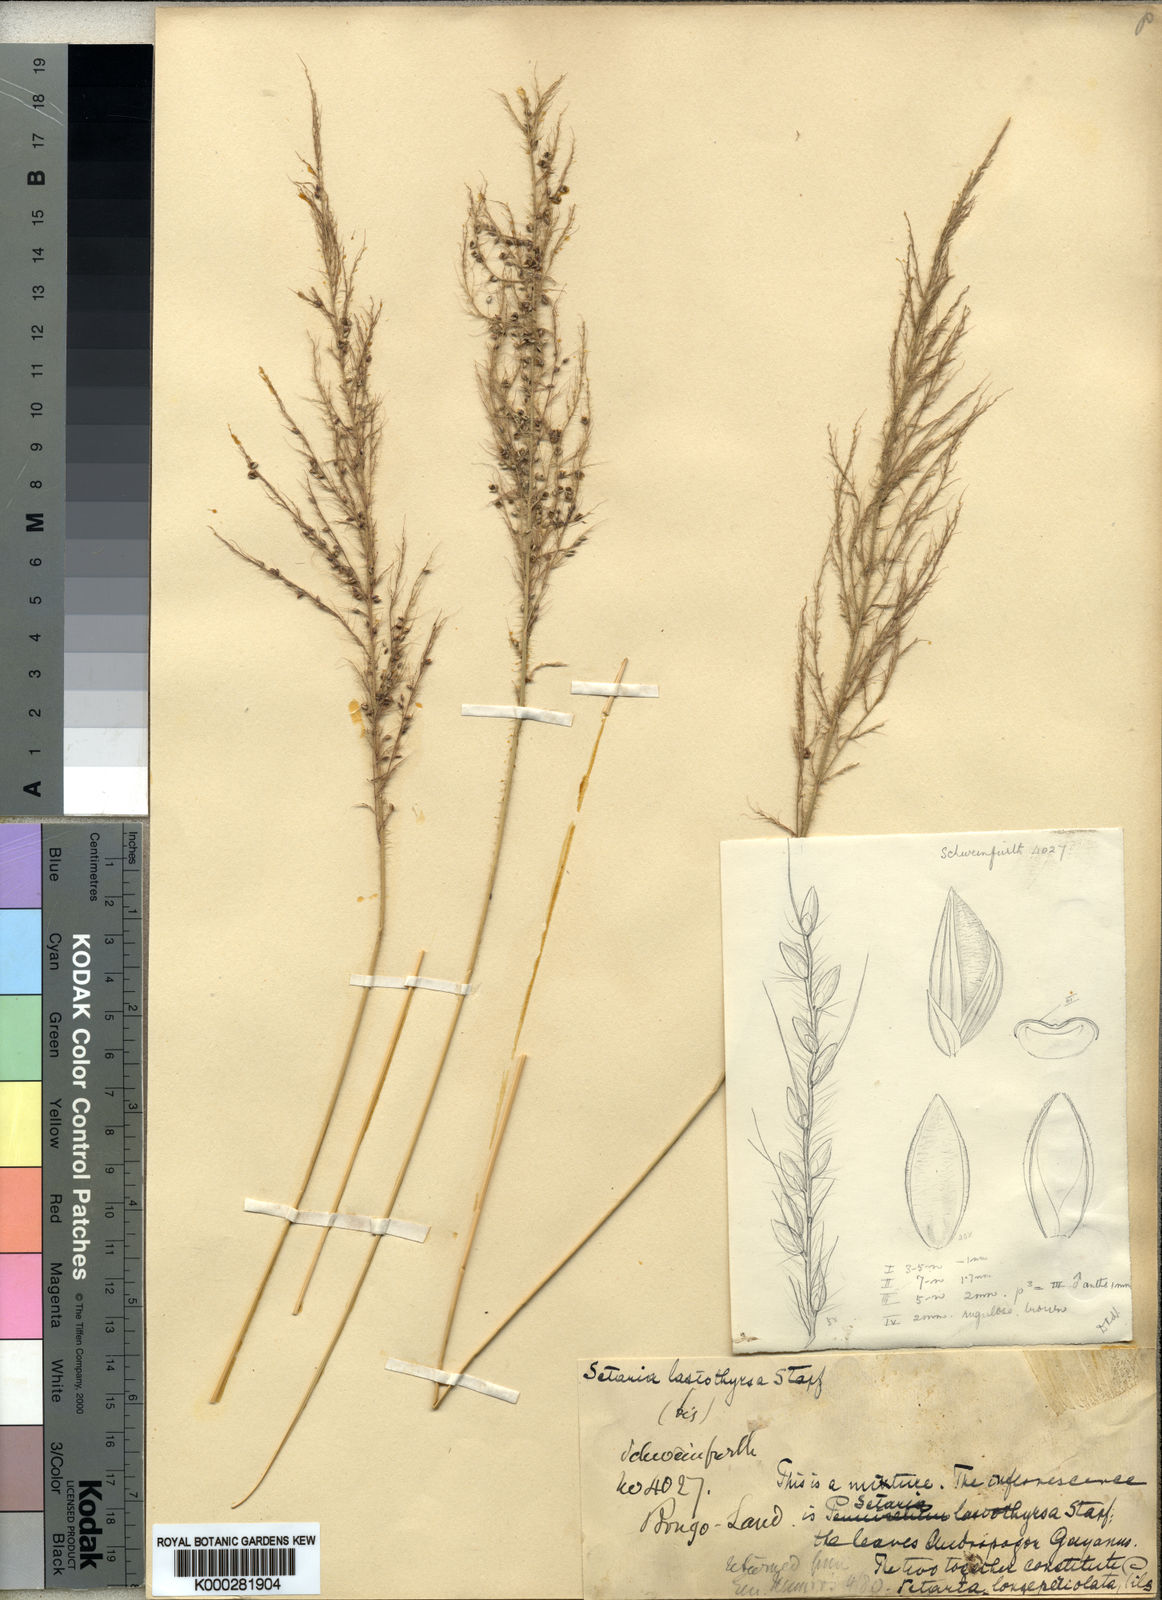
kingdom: Plantae
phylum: Tracheophyta
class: Liliopsida
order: Poales
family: Poaceae
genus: Setaria
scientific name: Setaria longiseta
